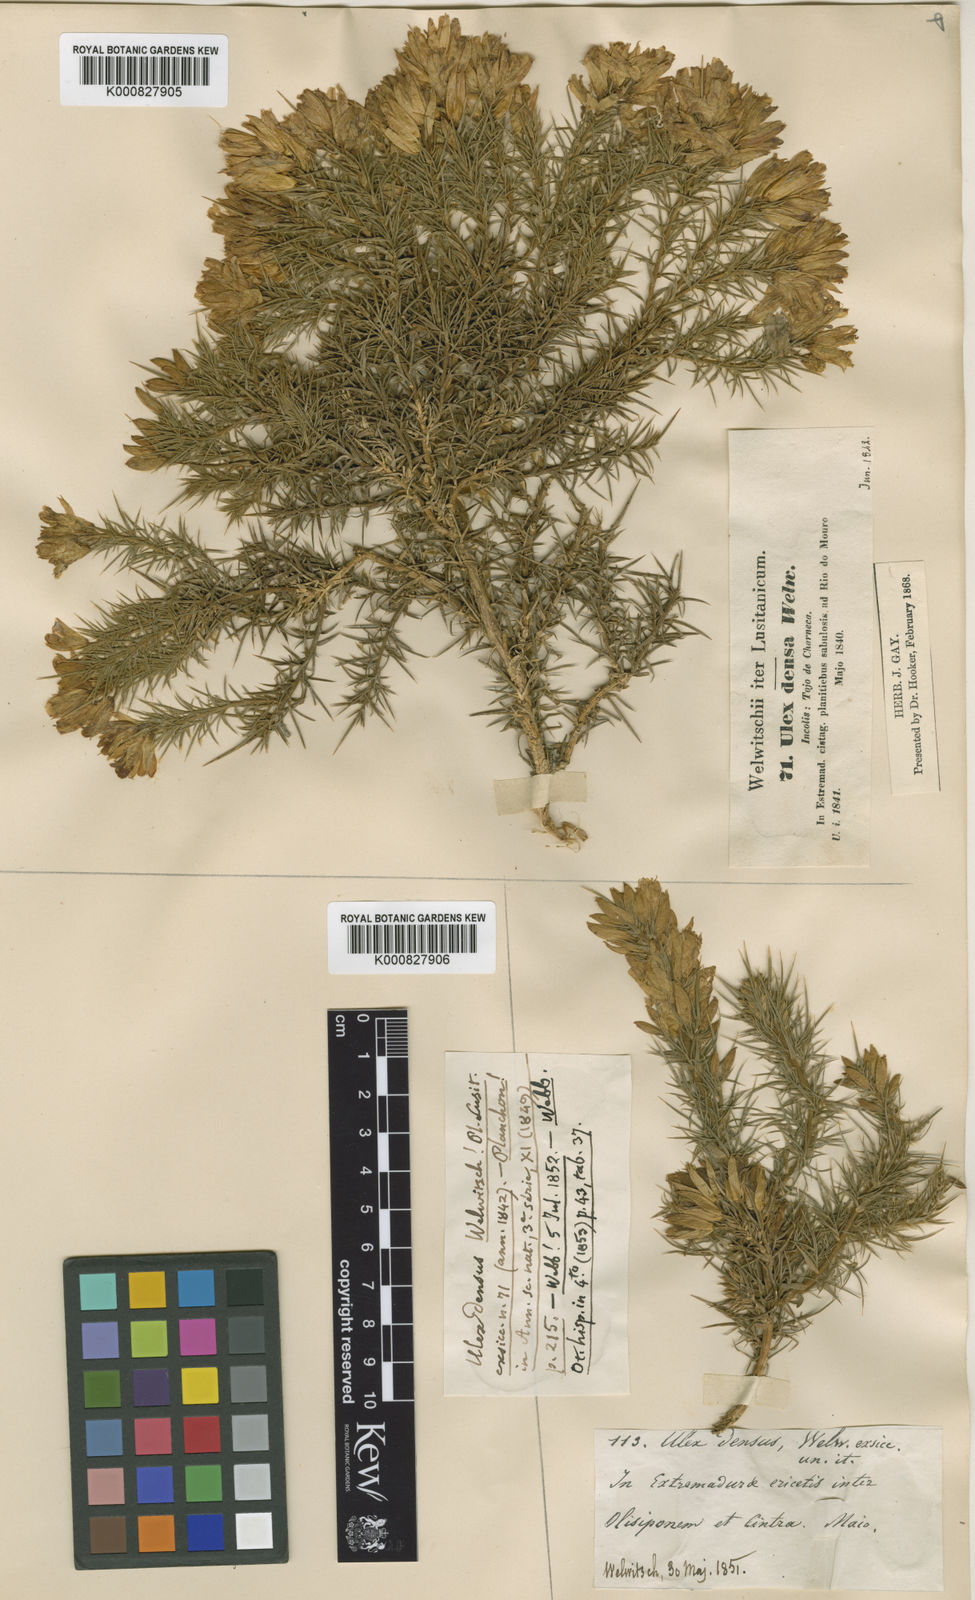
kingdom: Plantae
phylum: Tracheophyta
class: Magnoliopsida
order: Fabales
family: Fabaceae
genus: Ulex
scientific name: Ulex densus
